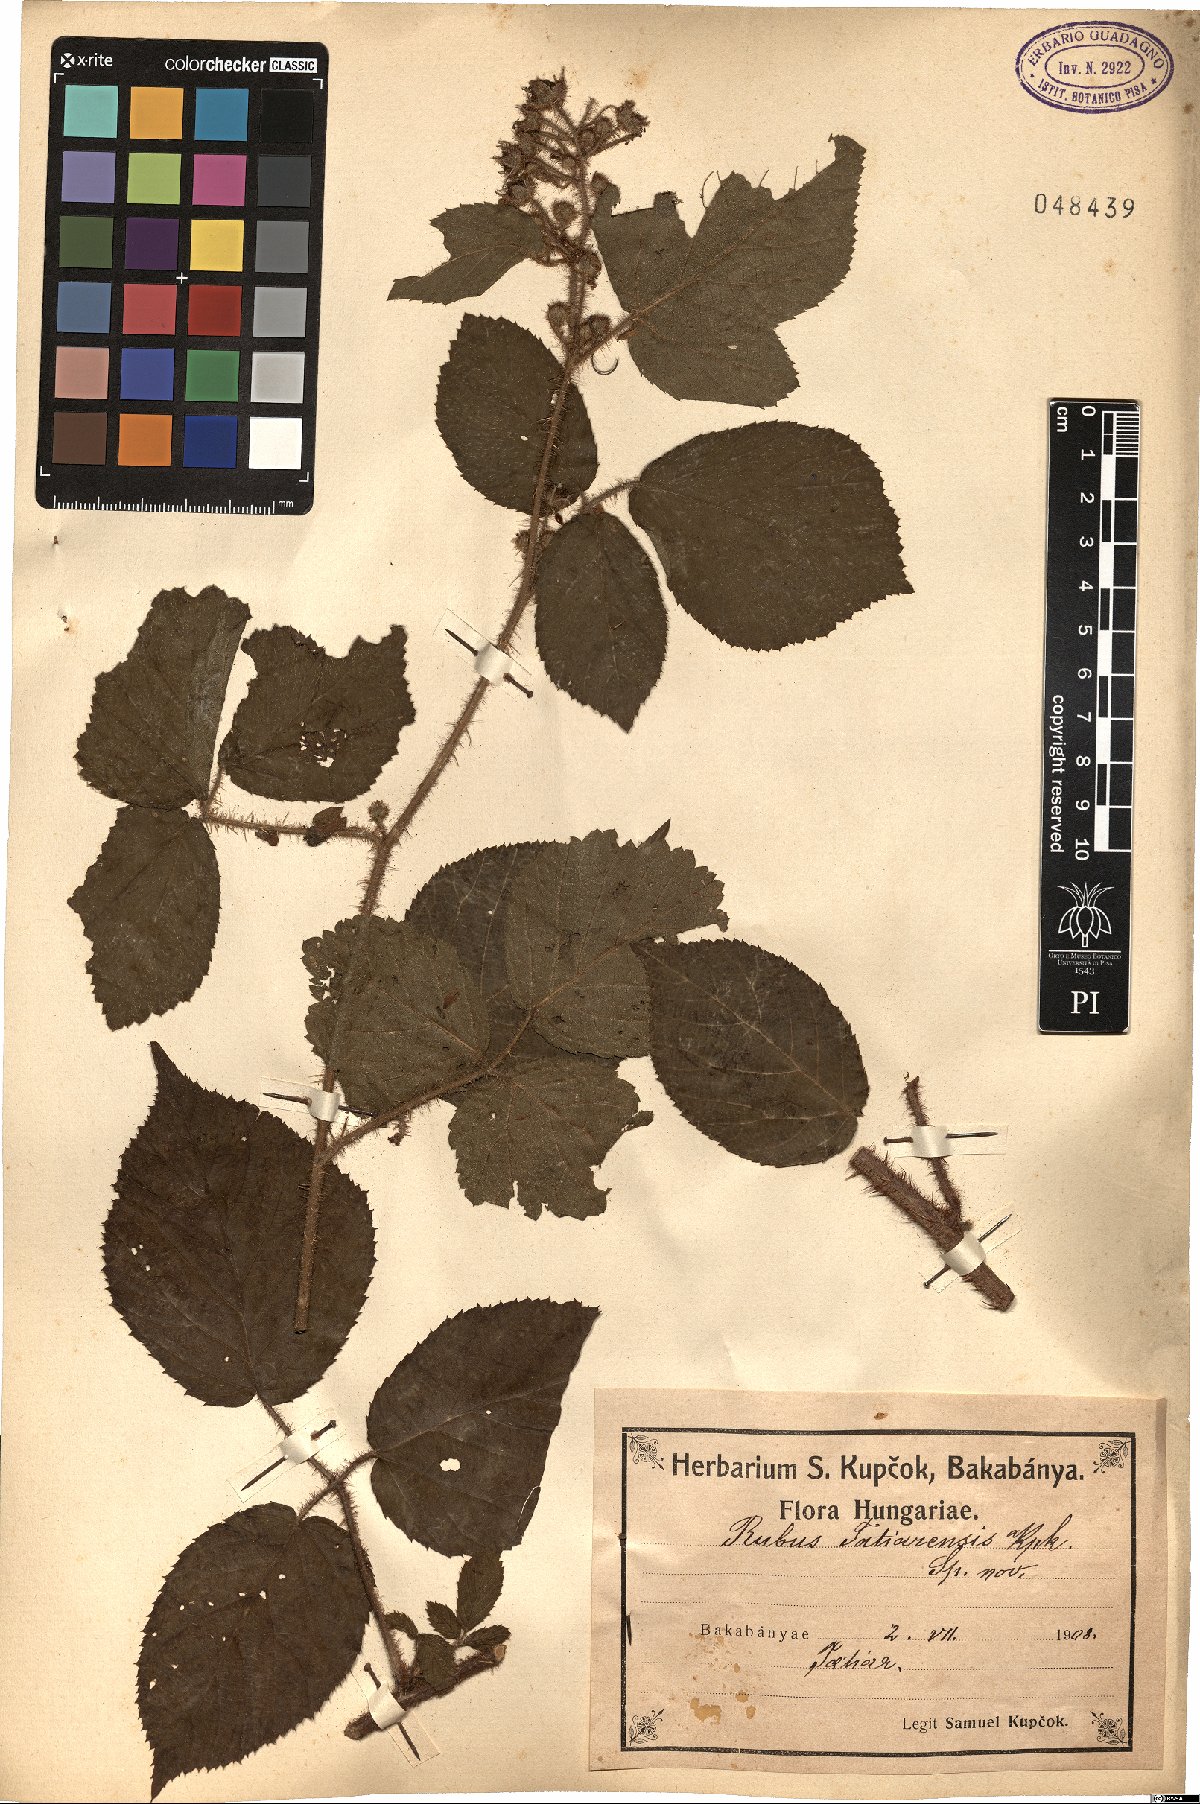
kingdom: Plantae
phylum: Tracheophyta
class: Magnoliopsida
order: Rosales
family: Rosaceae
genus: Rubus
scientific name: Rubus tatiarensis
